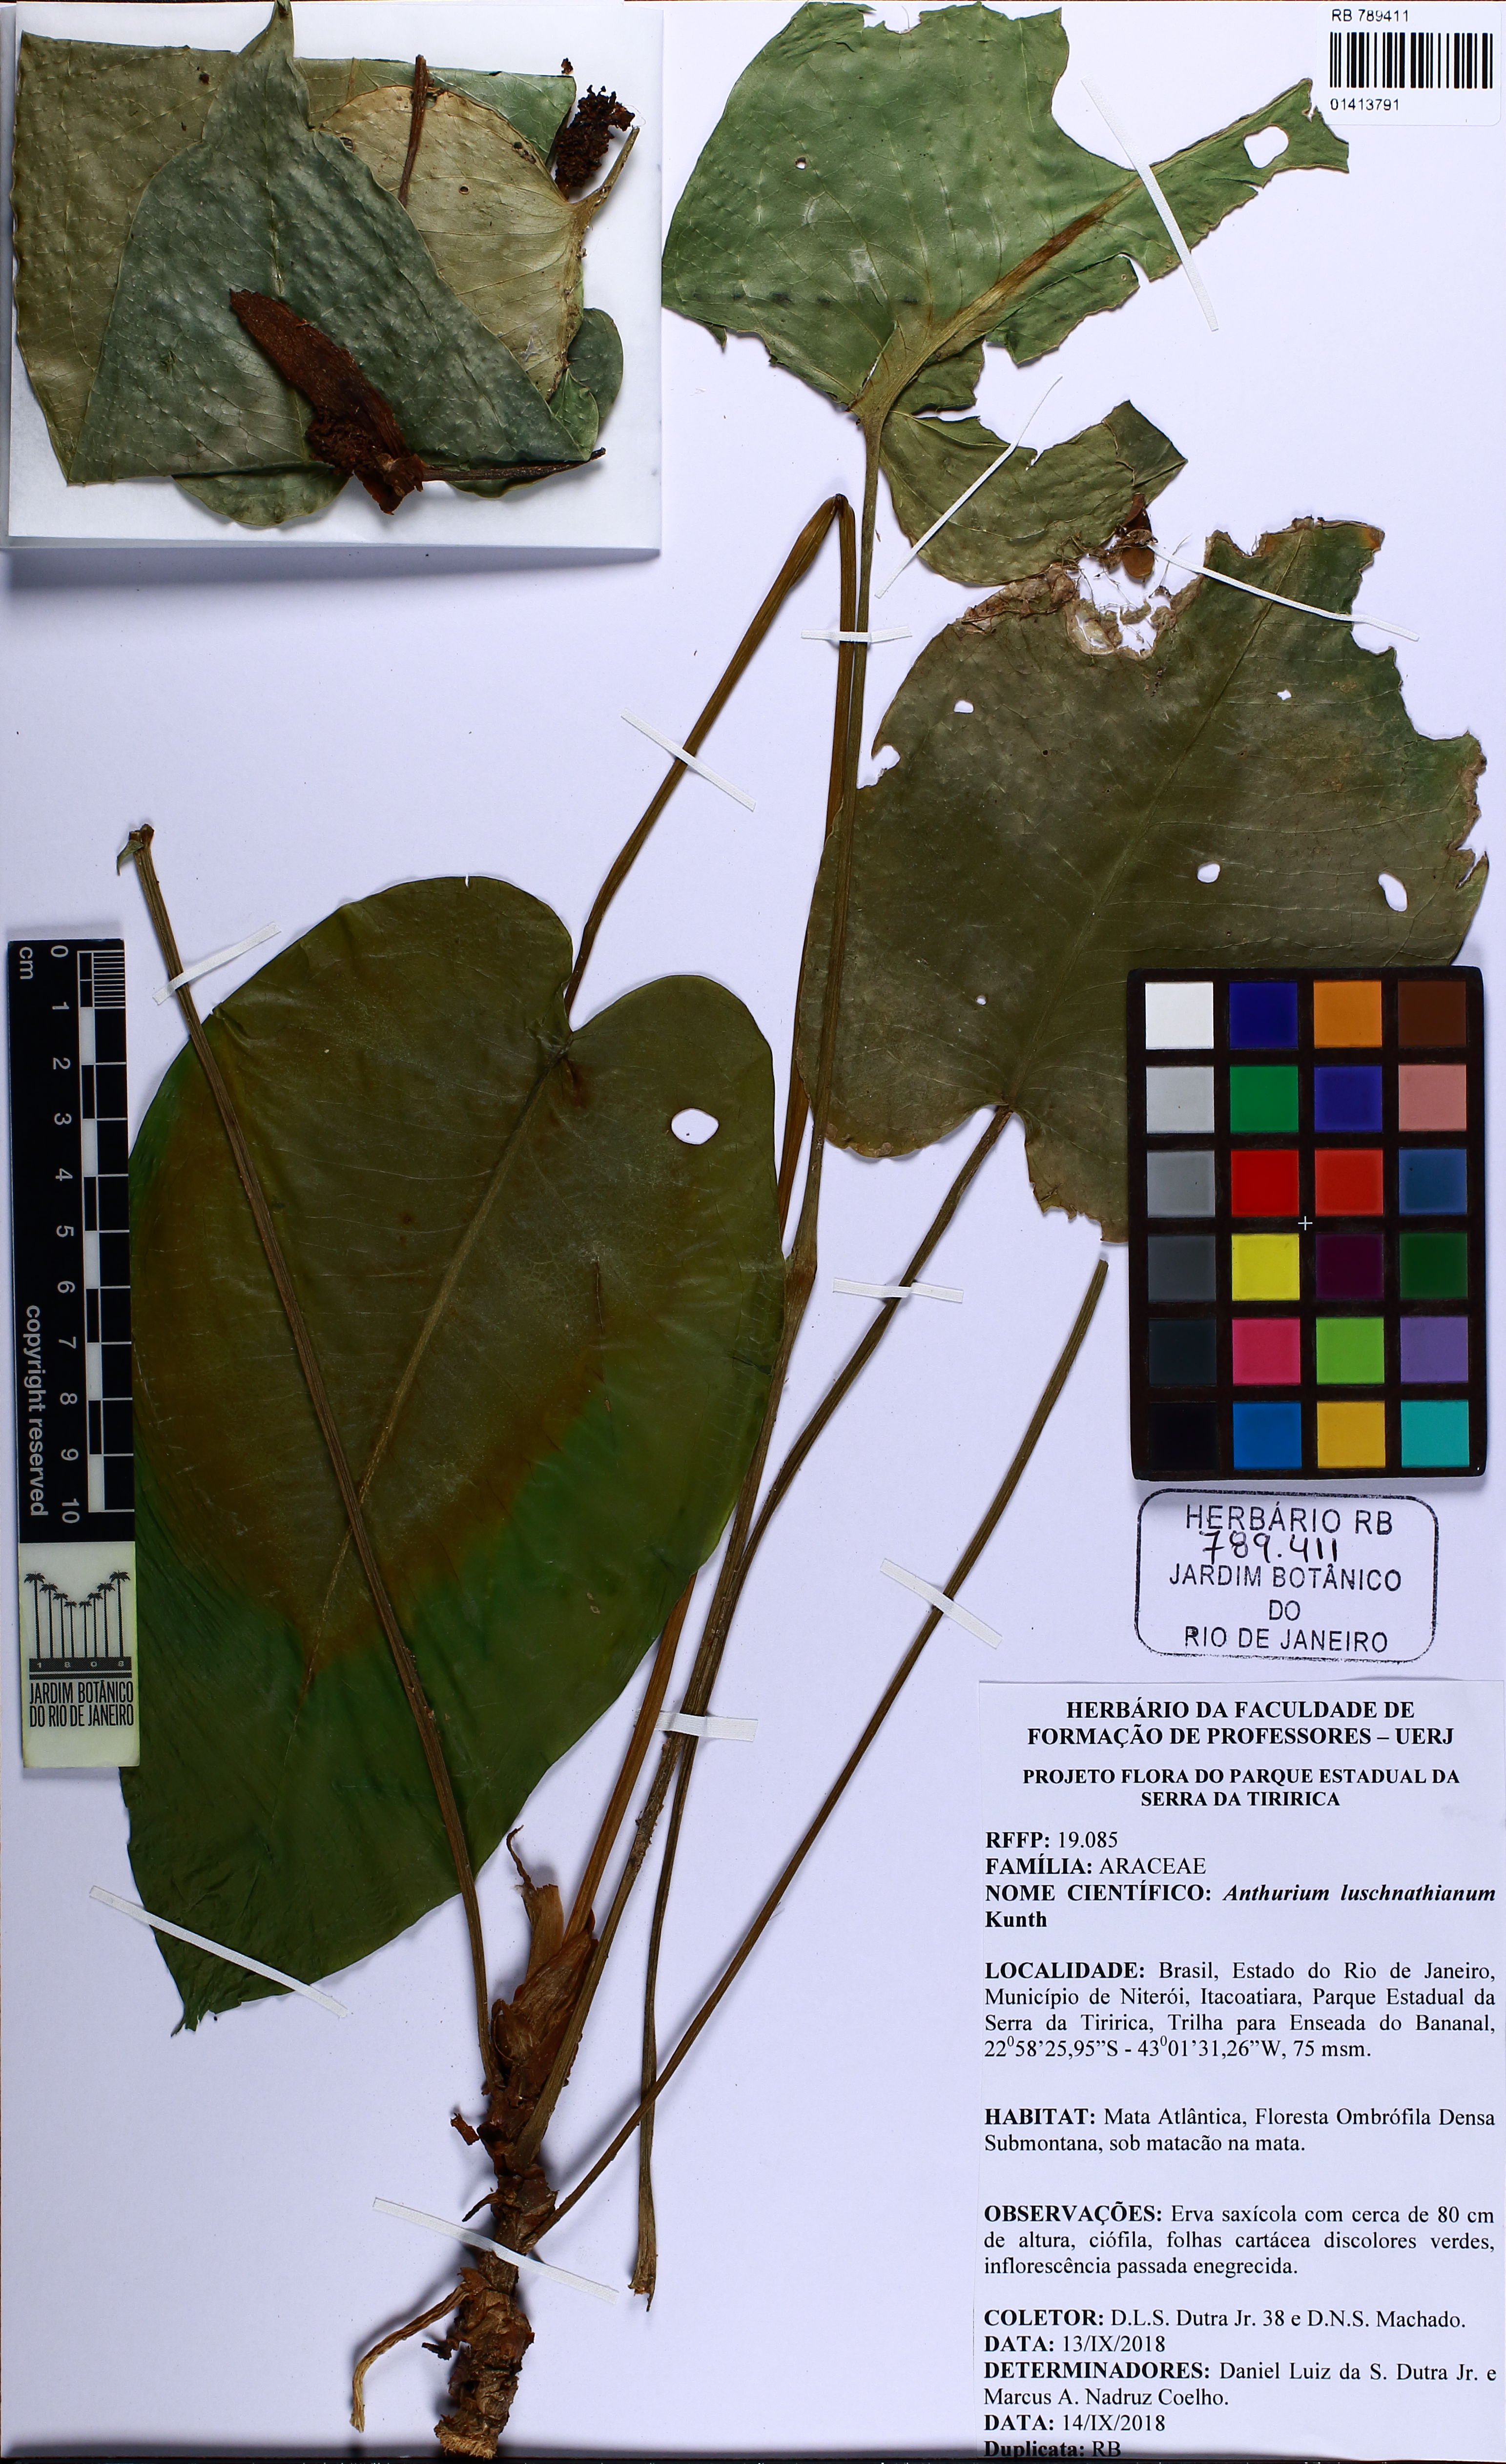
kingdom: Plantae
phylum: Tracheophyta
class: Liliopsida
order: Alismatales
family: Araceae
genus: Anthurium
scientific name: Anthurium luschnathianum
